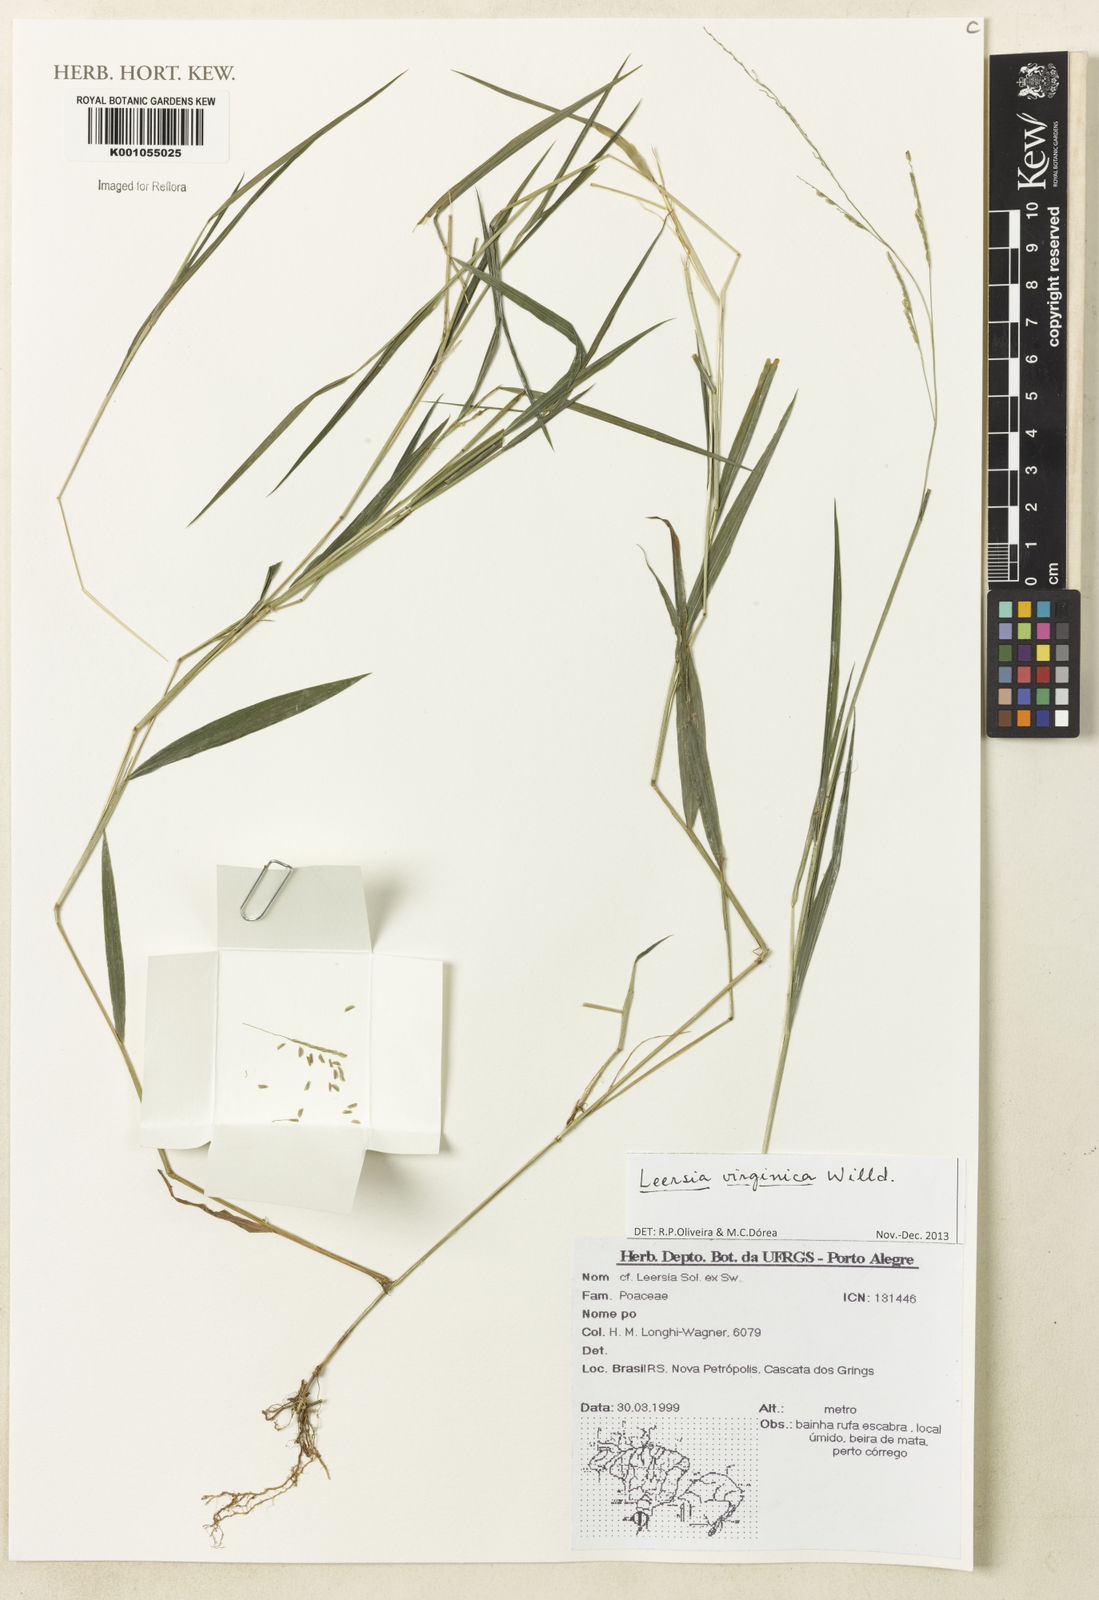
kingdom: Plantae
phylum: Tracheophyta
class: Liliopsida
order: Poales
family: Poaceae
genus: Leersia
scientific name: Leersia virginica
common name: White cutgrass
